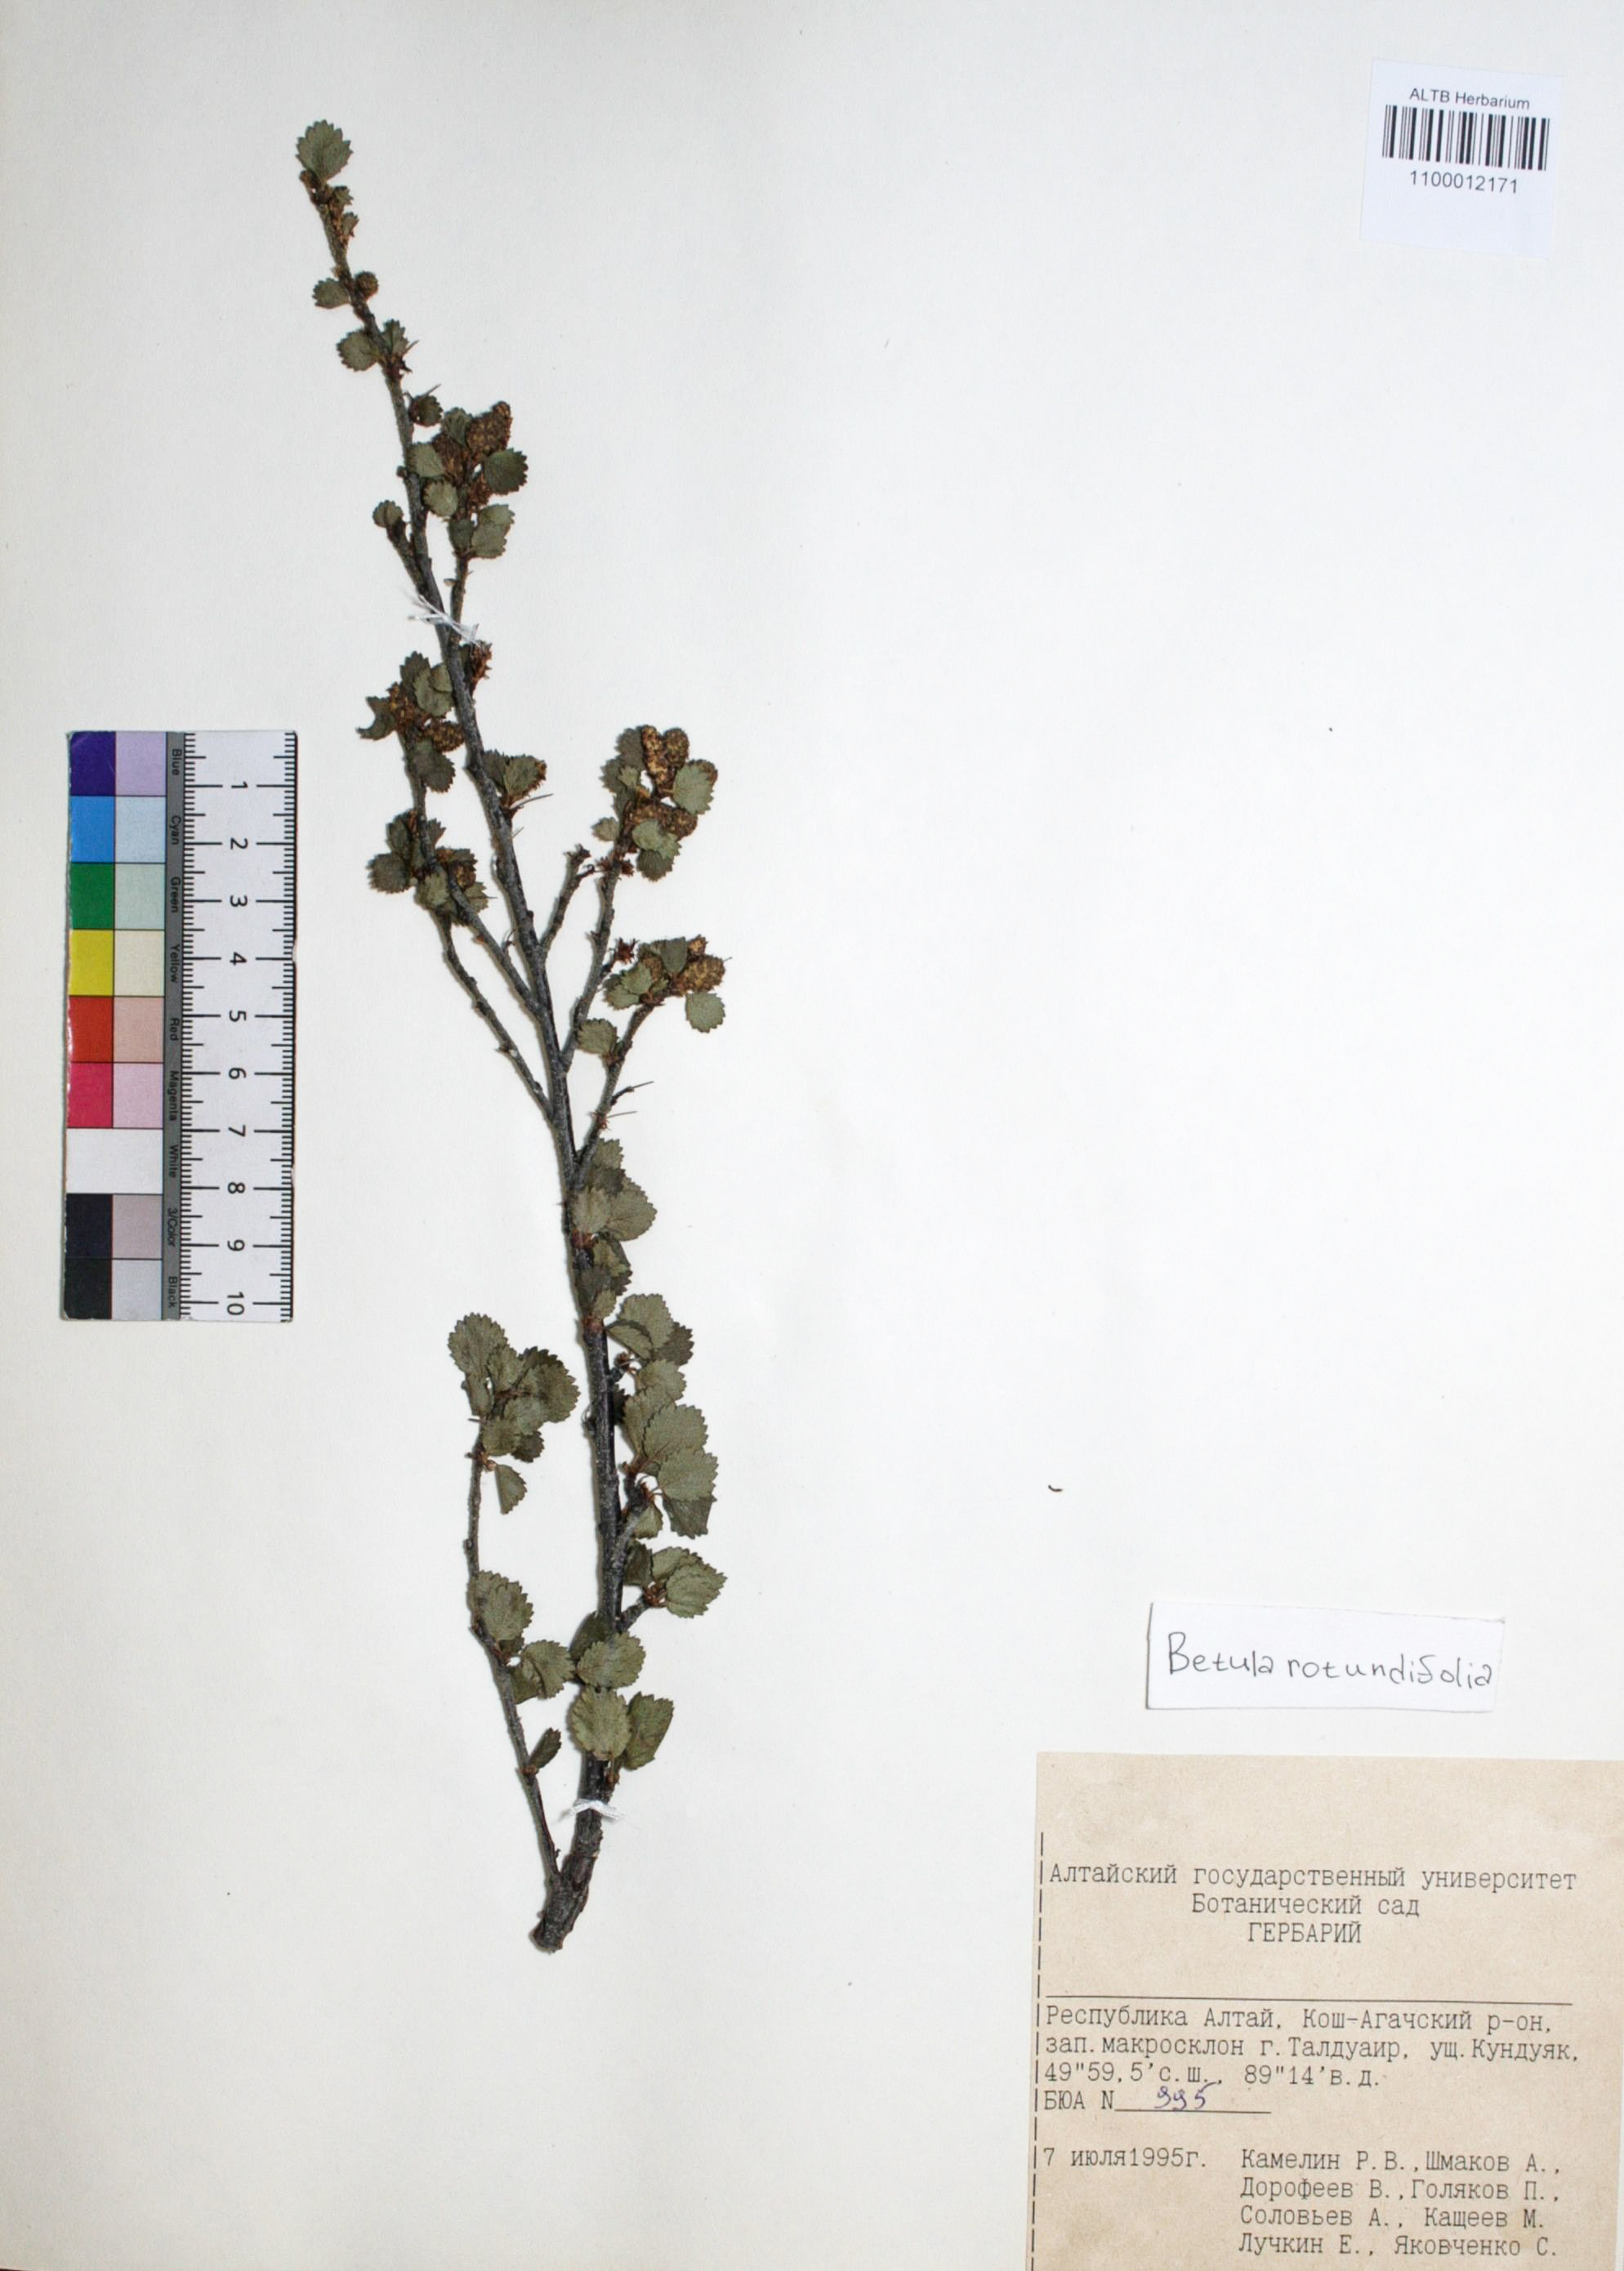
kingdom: Plantae
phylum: Tracheophyta
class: Magnoliopsida
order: Fagales
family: Betulaceae
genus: Betula
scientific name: Betula glandulosa
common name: Dwarf birch
